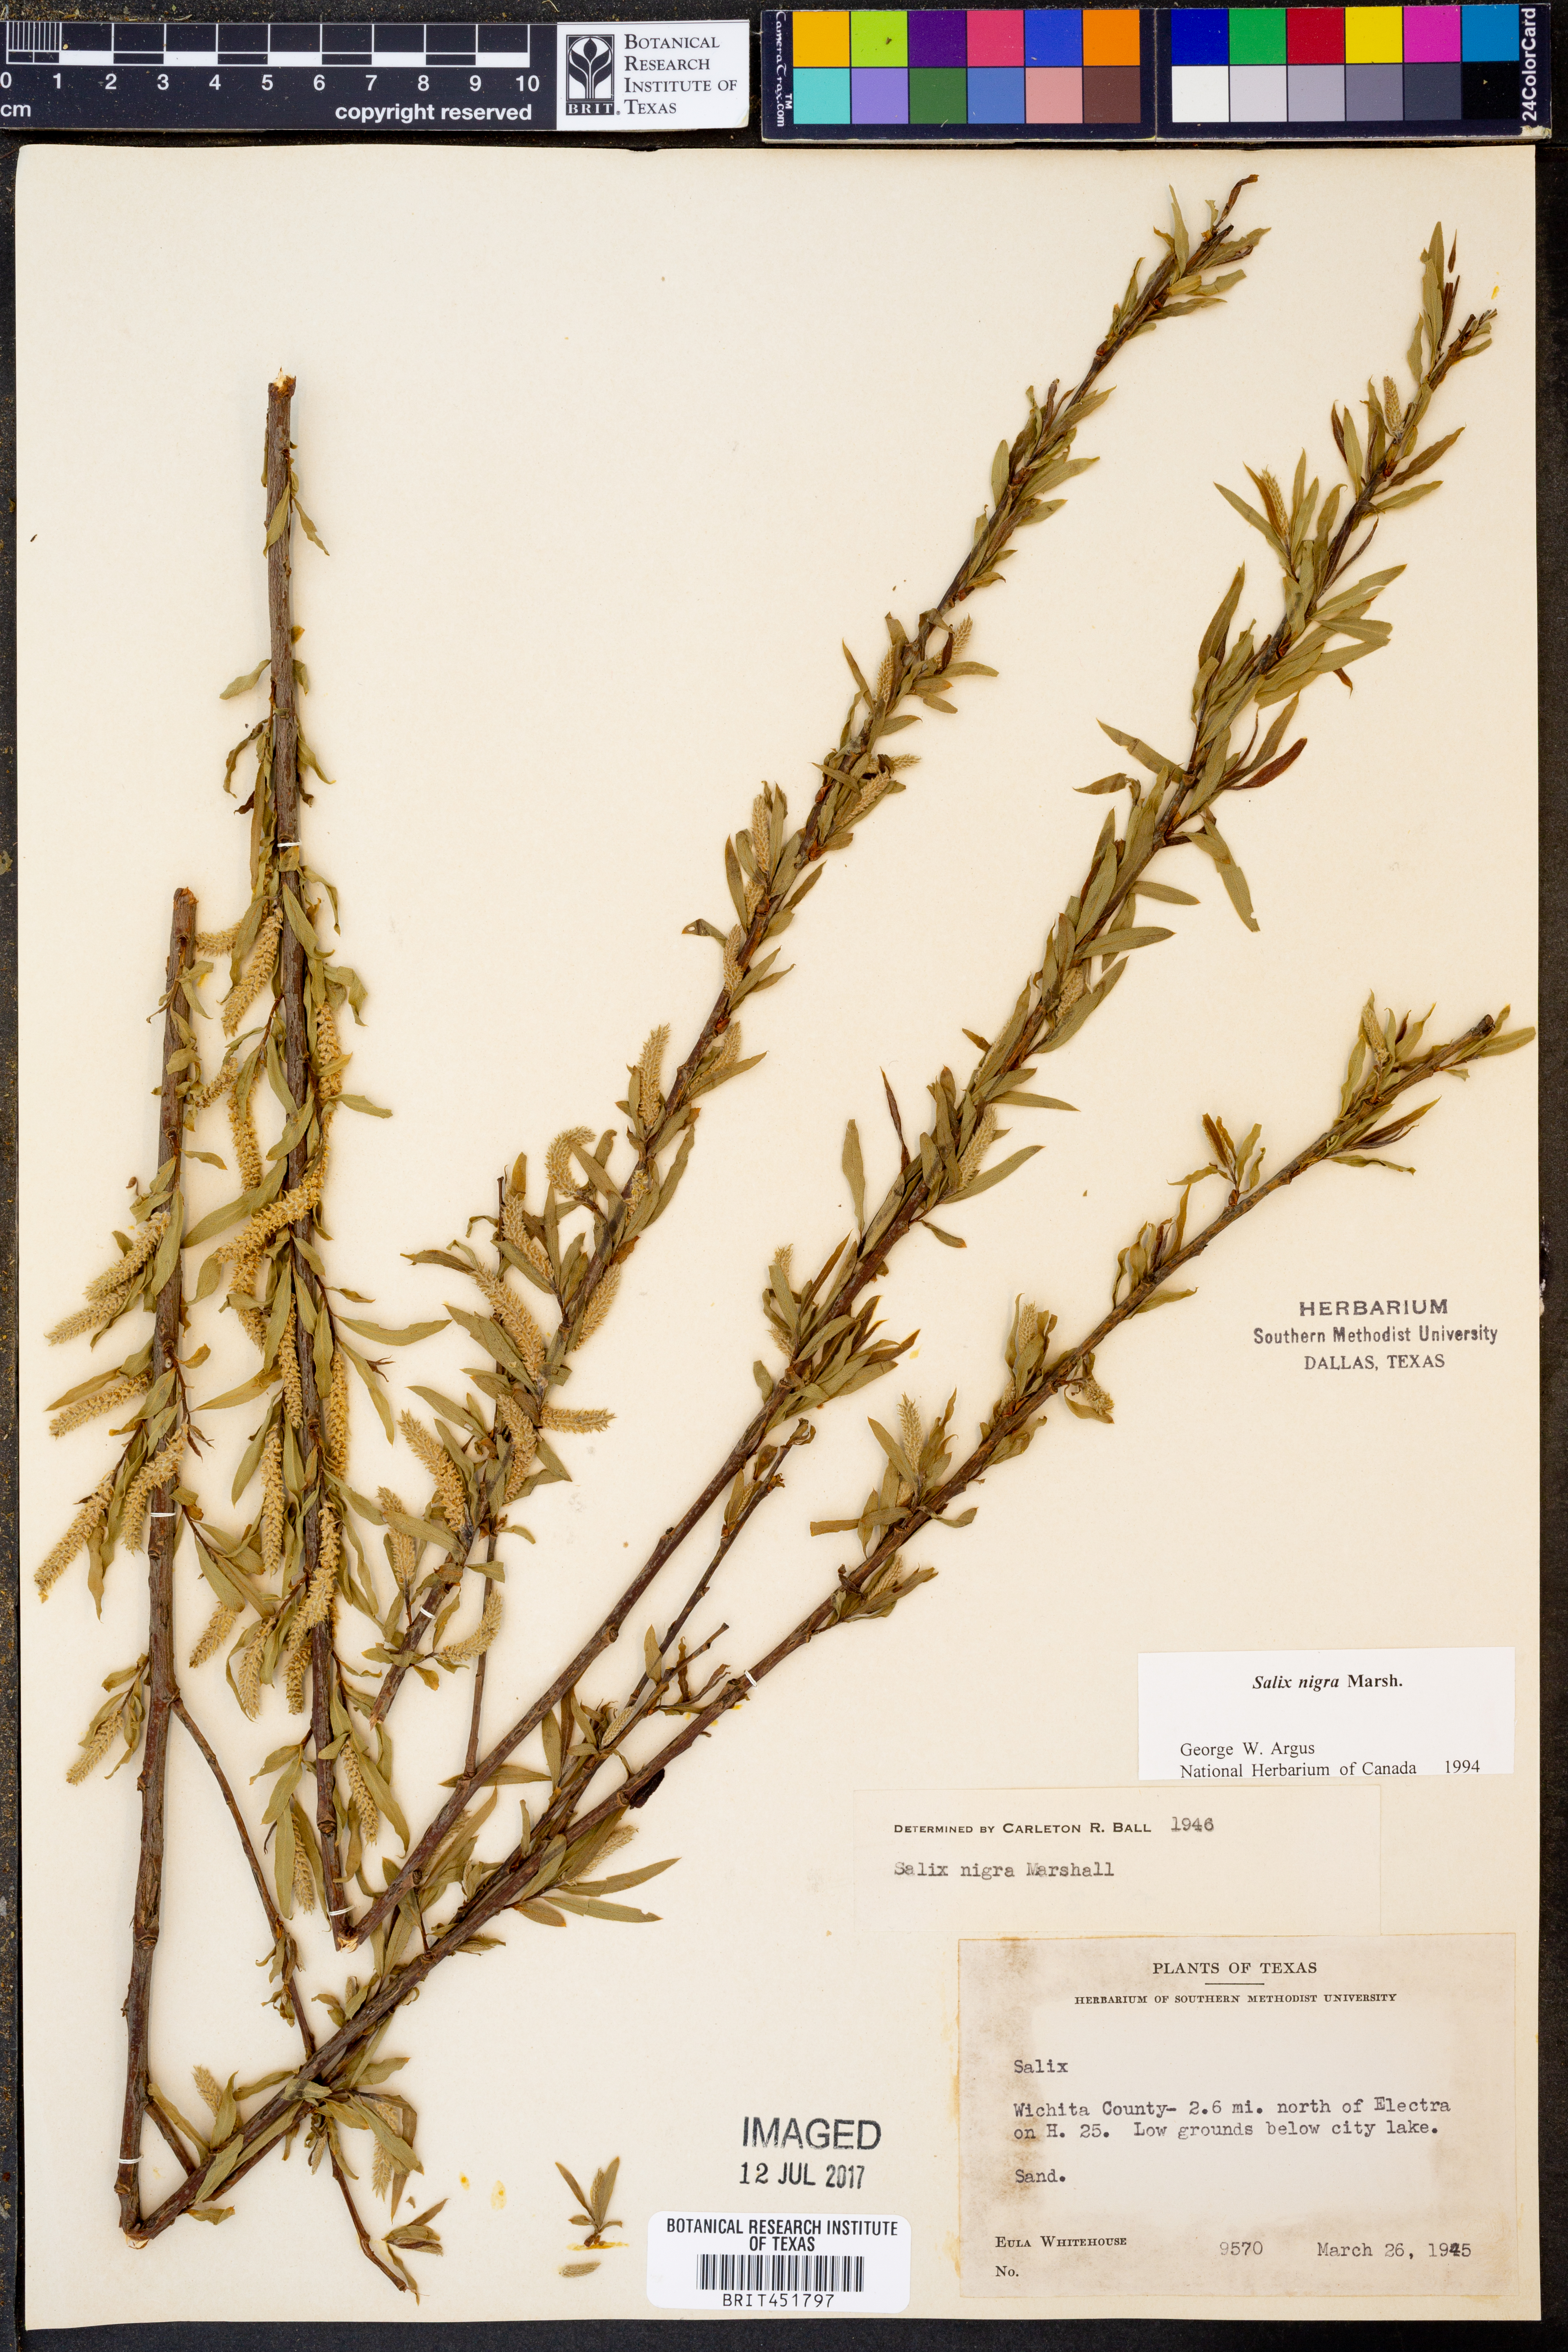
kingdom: Plantae
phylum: Tracheophyta
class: Magnoliopsida
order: Malpighiales
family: Salicaceae
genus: Salix
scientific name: Salix nigra
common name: Black willow
